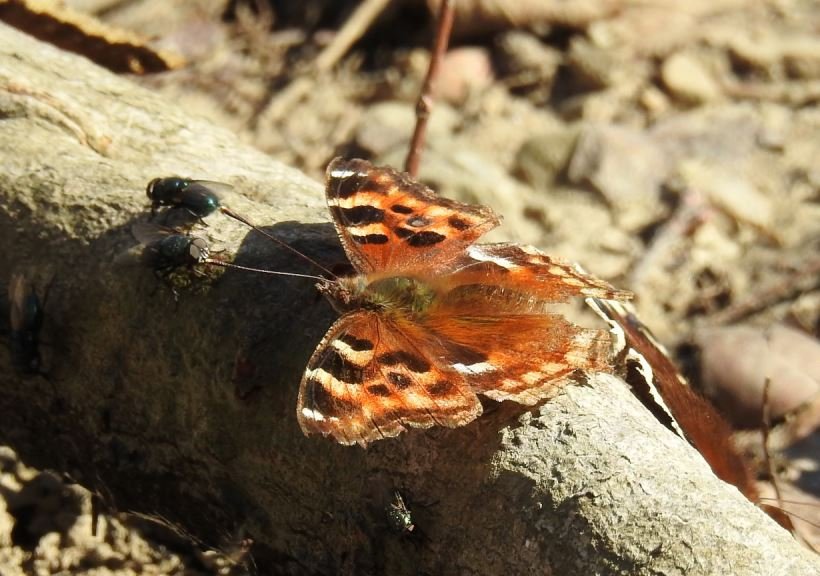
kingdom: Animalia
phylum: Arthropoda
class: Insecta
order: Lepidoptera
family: Nymphalidae
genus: Polygonia
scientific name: Polygonia vaualbum
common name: Compton Tortoiseshell
